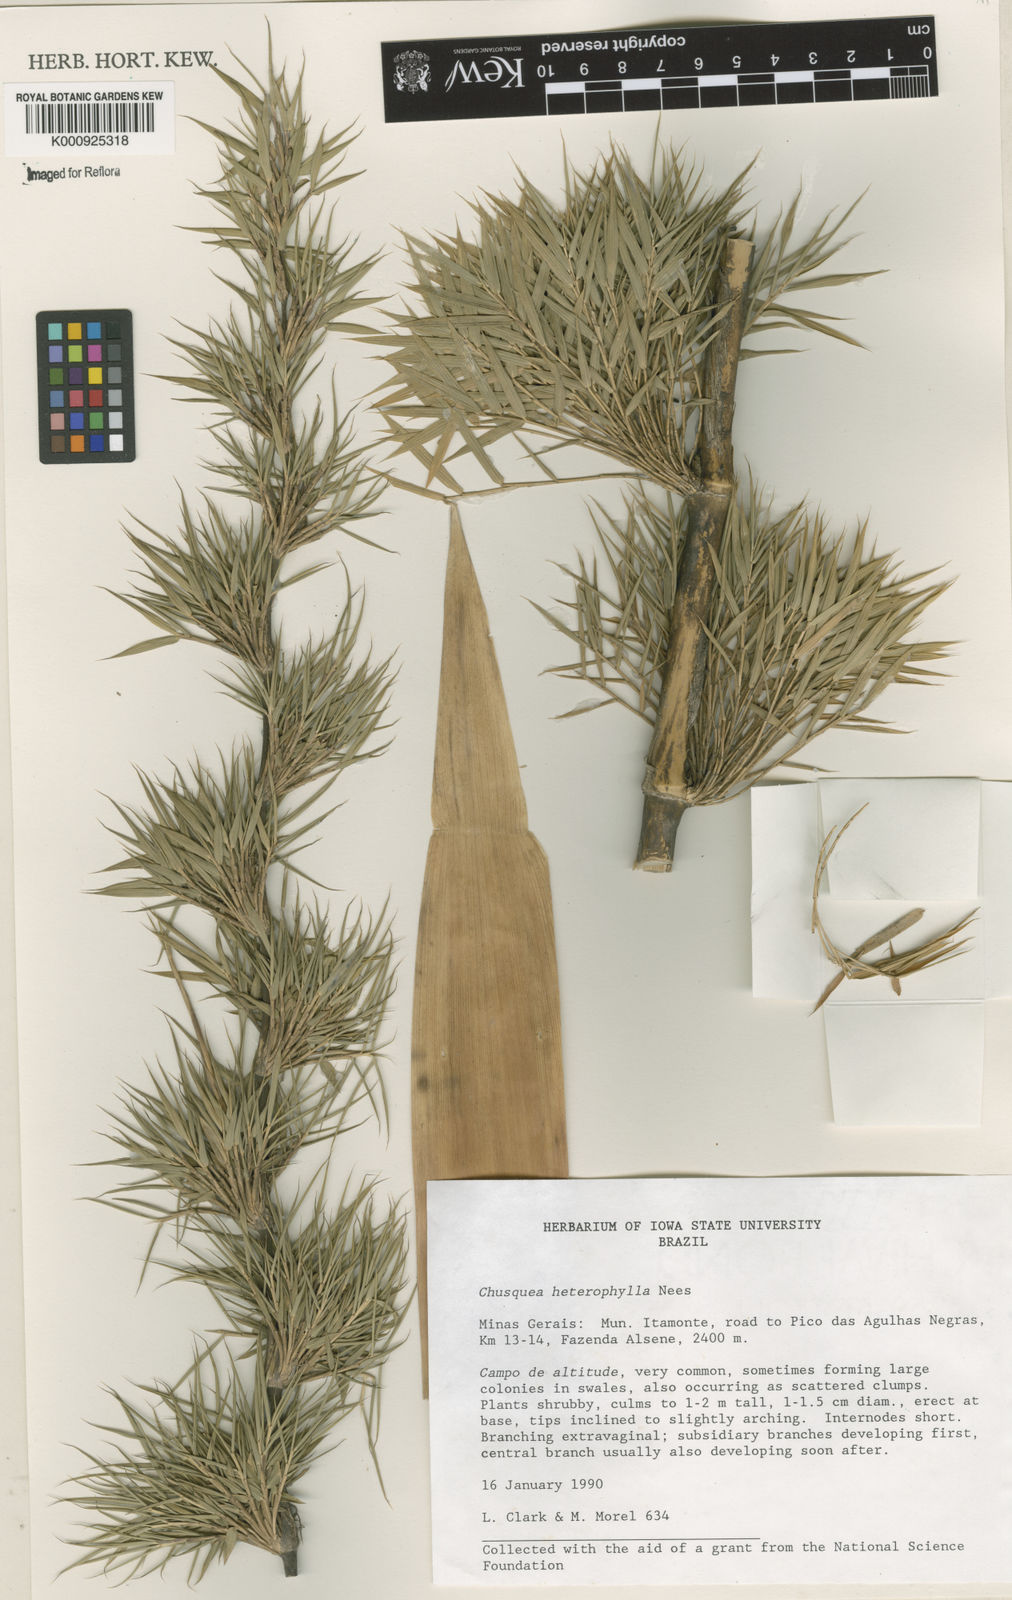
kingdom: Plantae
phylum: Tracheophyta
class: Liliopsida
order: Poales
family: Poaceae
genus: Chusquea
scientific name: Chusquea heterophylla
